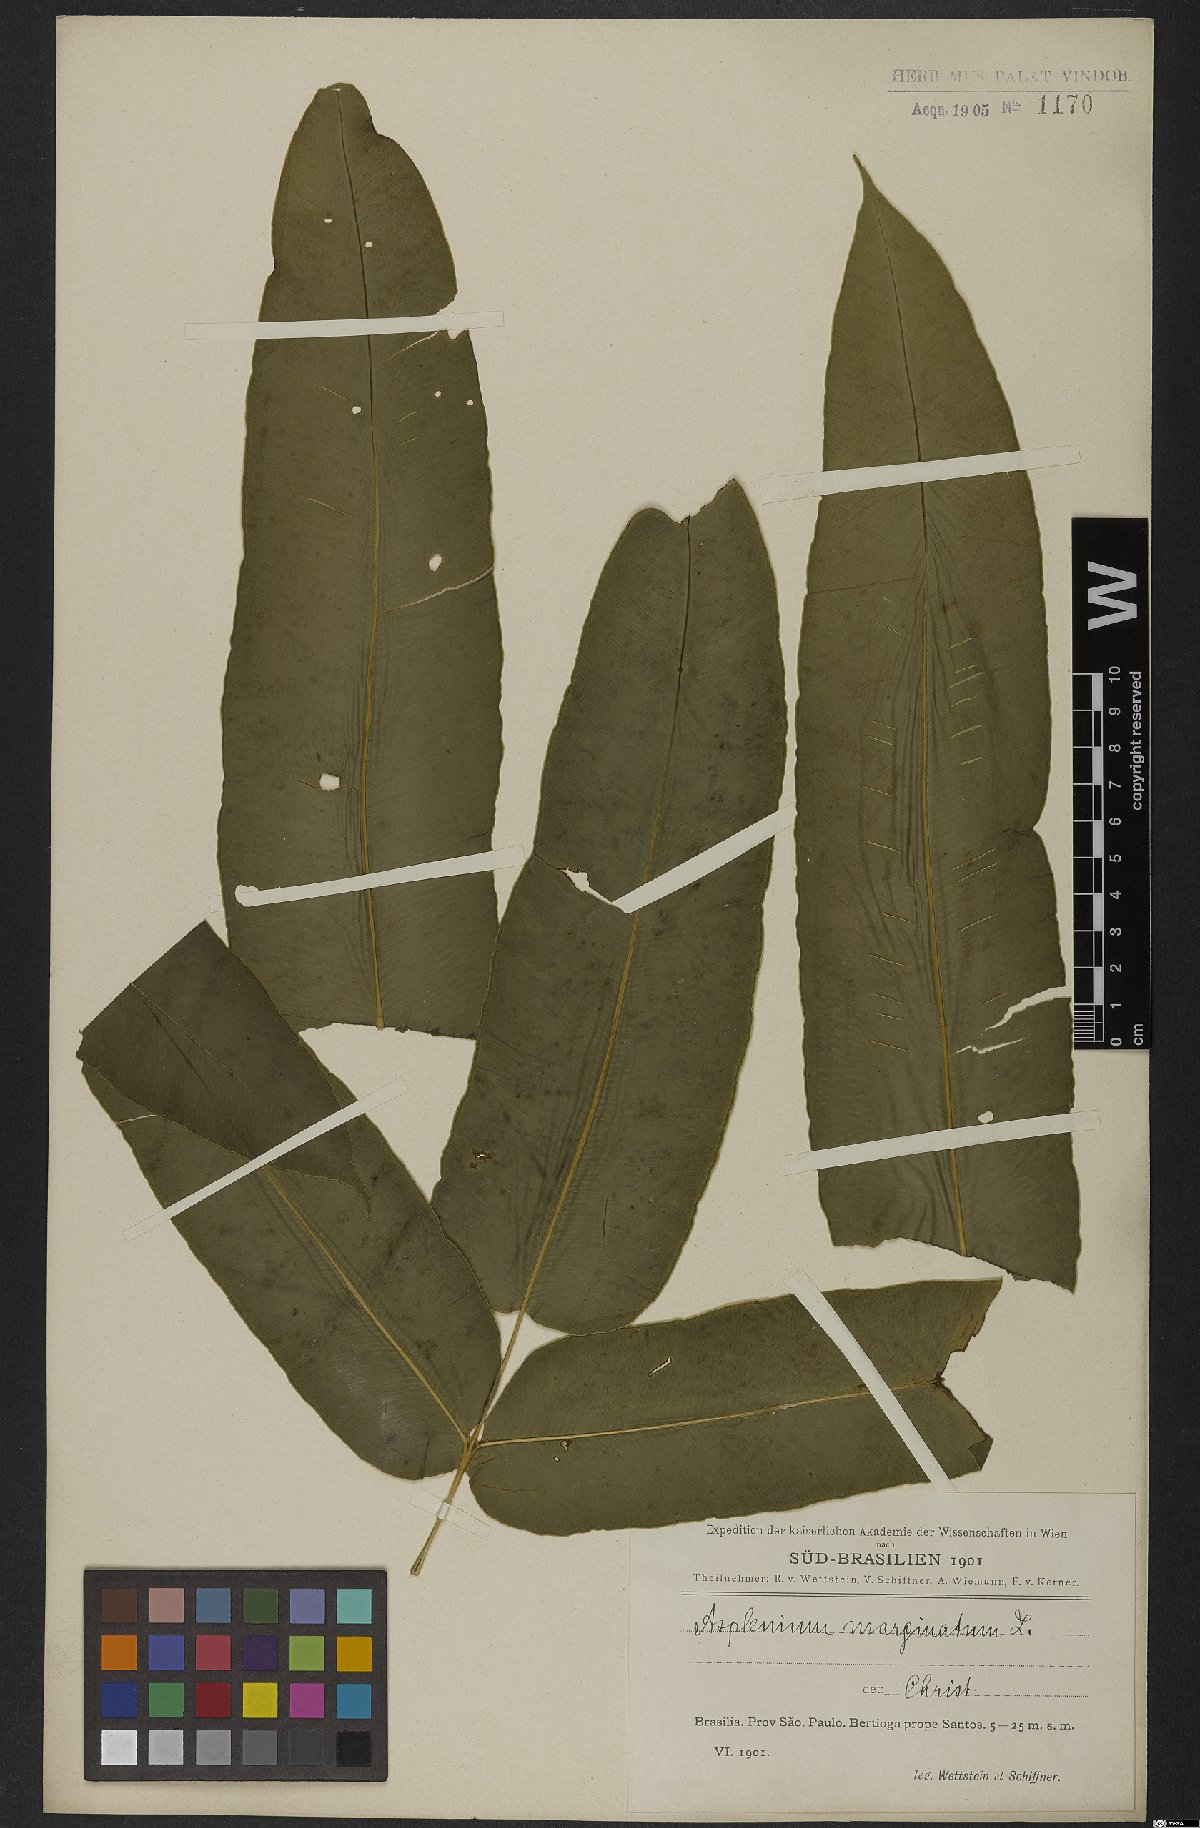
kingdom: Plantae
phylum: Tracheophyta
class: Polypodiopsida
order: Polypodiales
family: Hemidictyaceae
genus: Hemidictyum
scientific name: Hemidictyum marginatum
